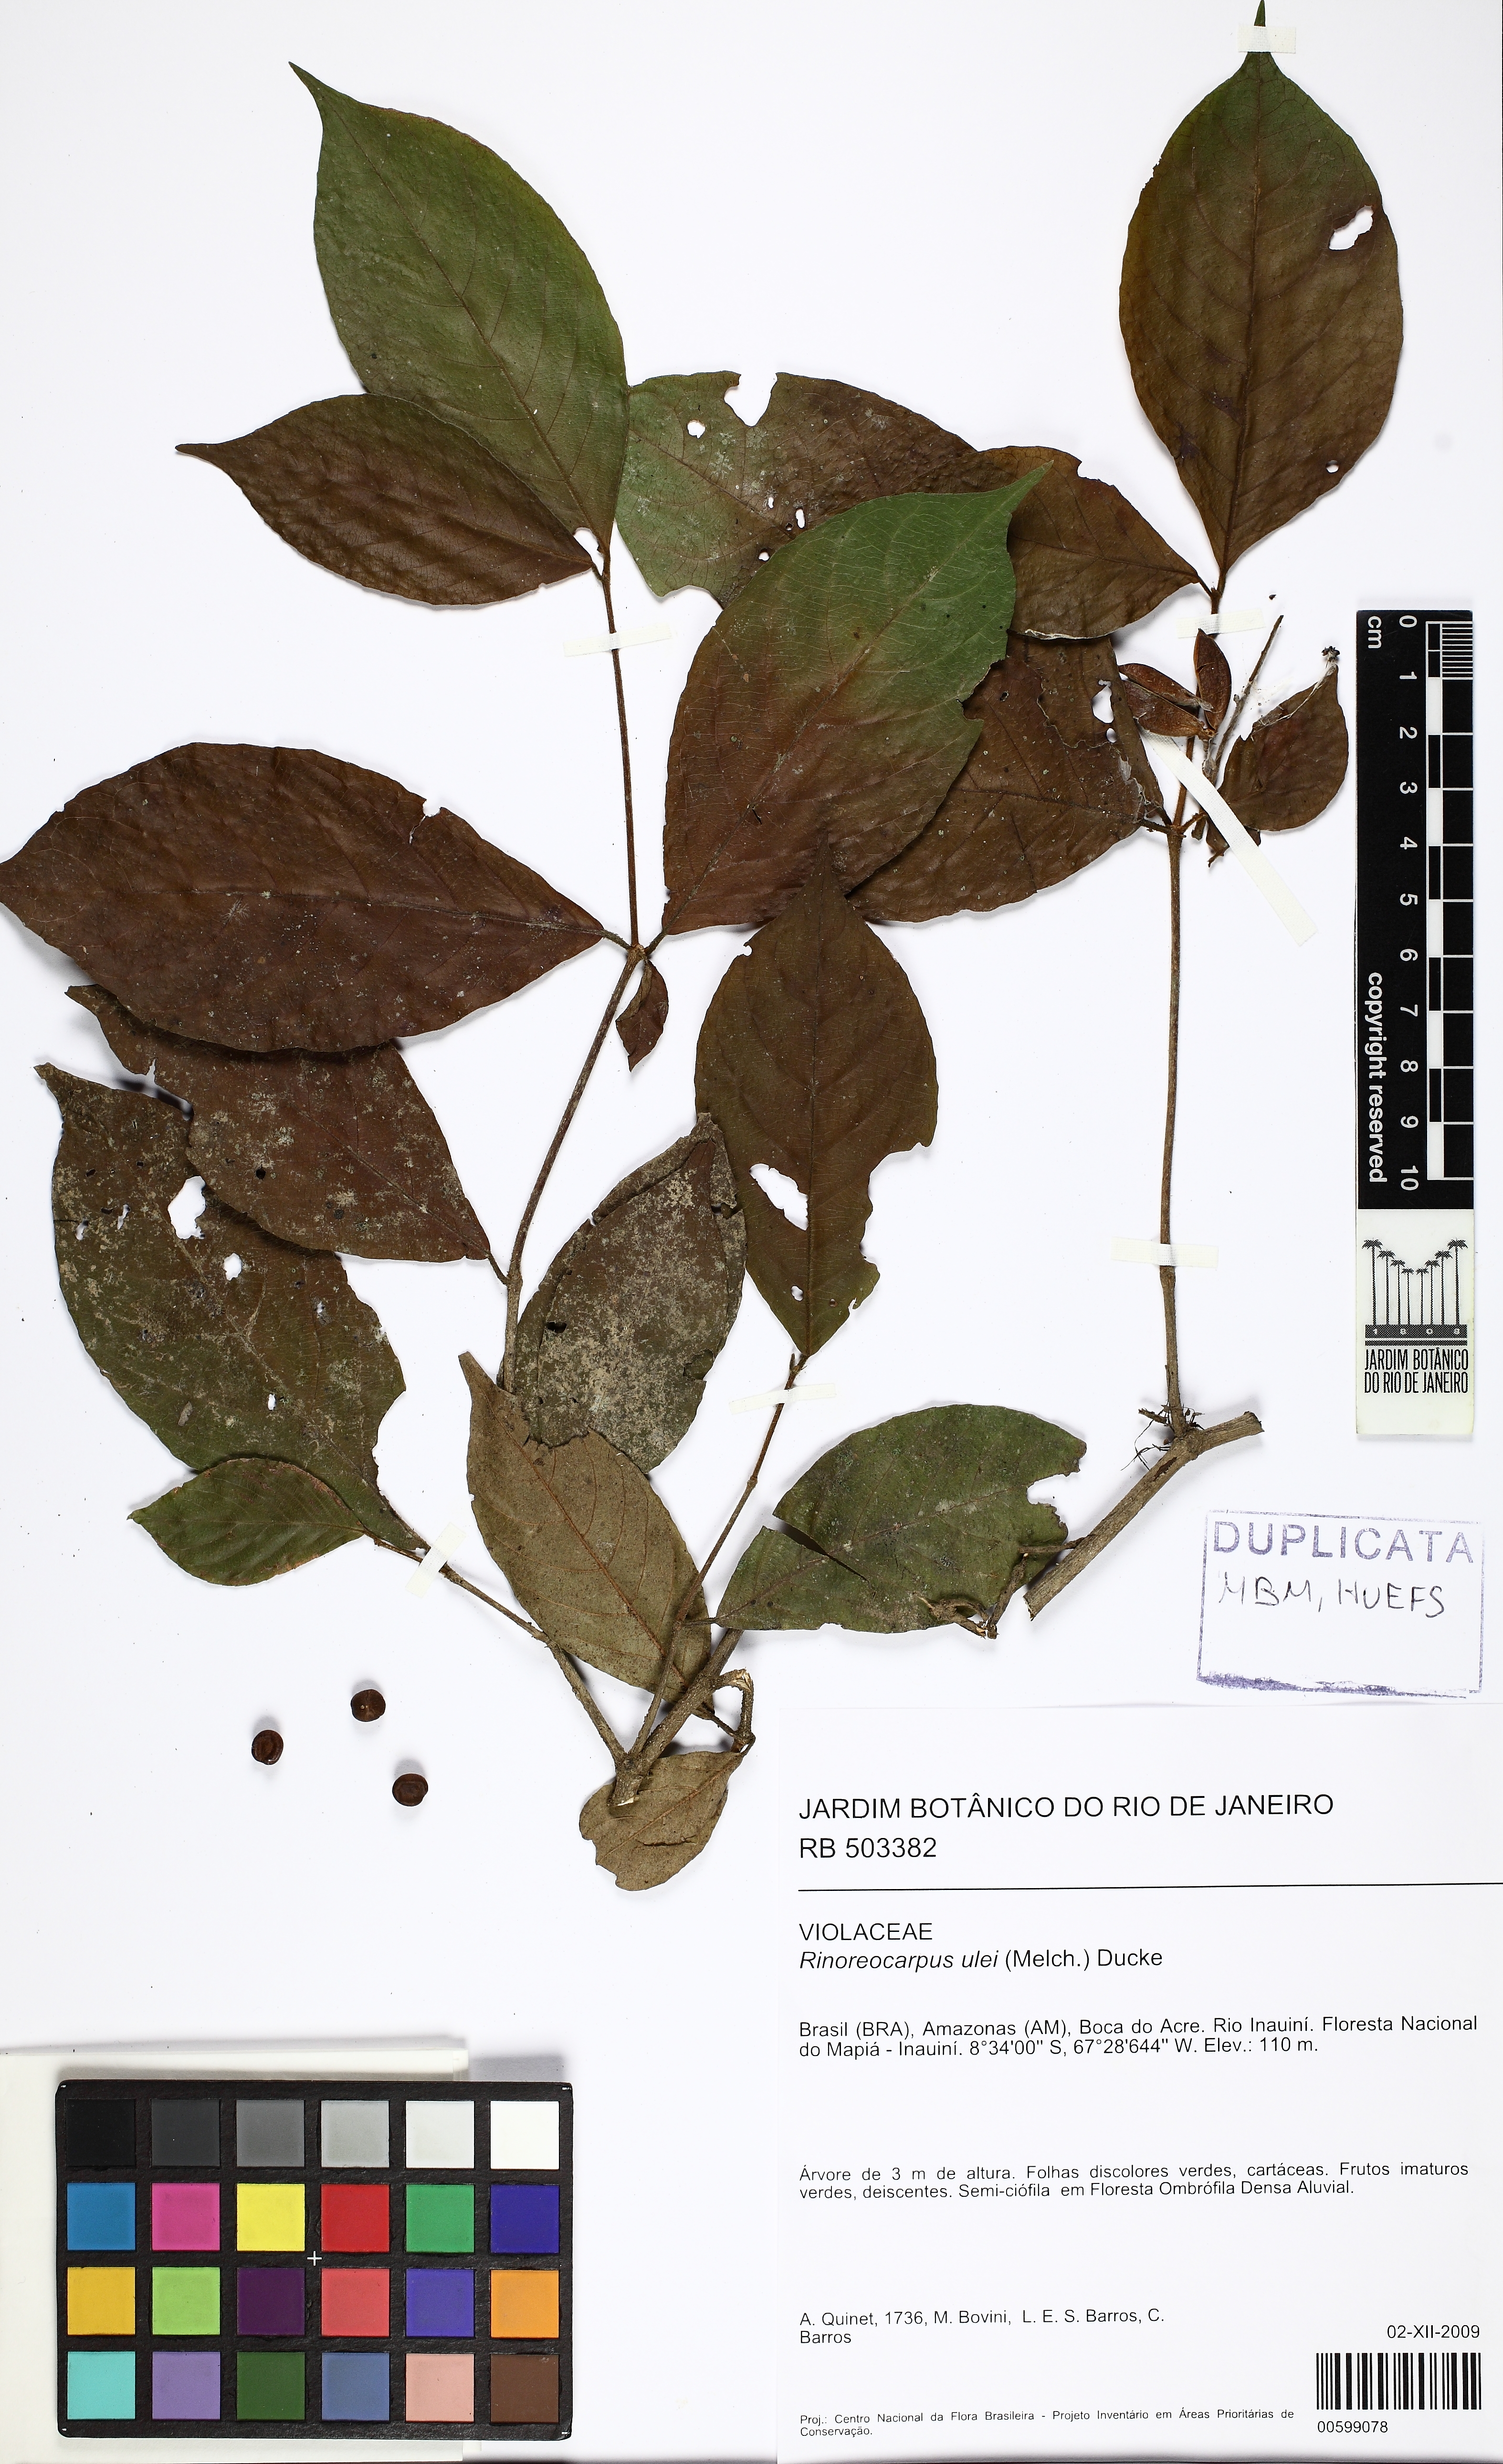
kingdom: Plantae
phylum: Tracheophyta
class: Magnoliopsida
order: Malpighiales
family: Violaceae
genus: Rinoreocarpus
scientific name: Rinoreocarpus ulei
